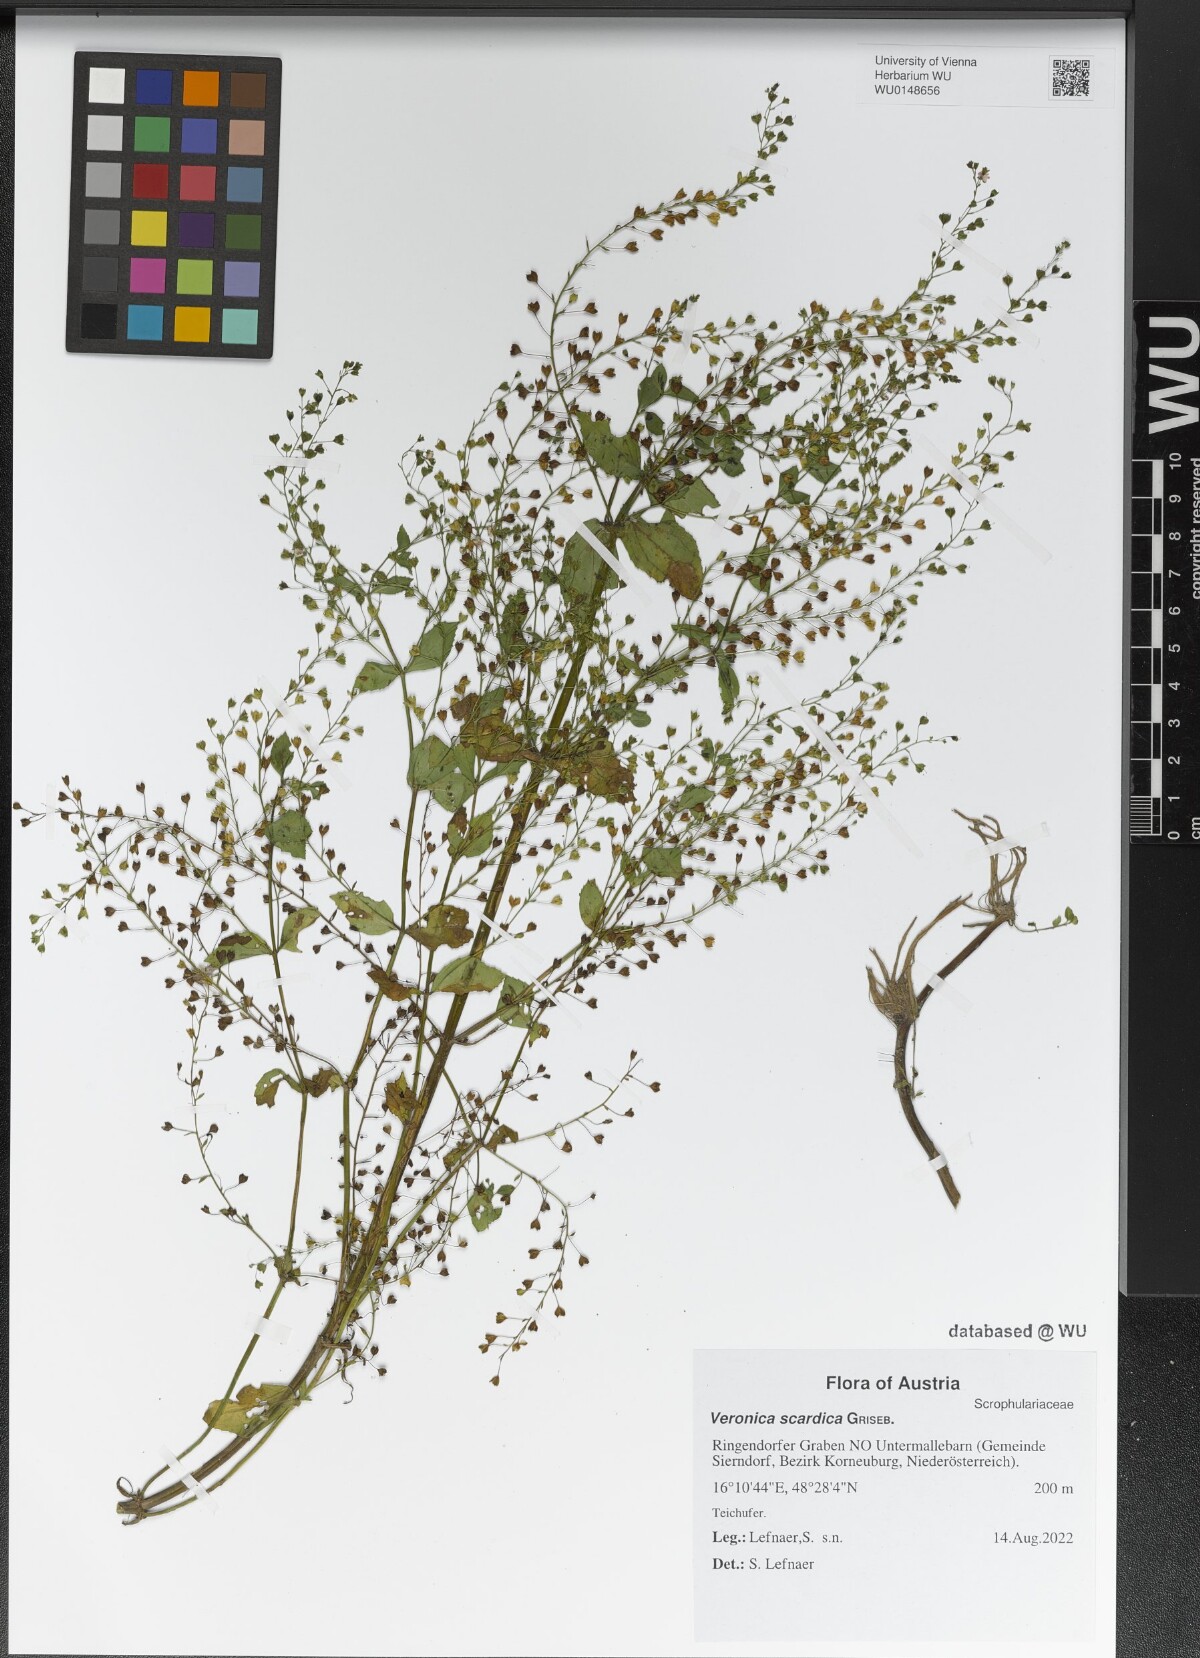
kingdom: Plantae
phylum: Tracheophyta
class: Magnoliopsida
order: Lamiales
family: Plantaginaceae
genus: Veronica
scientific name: Veronica scardica
